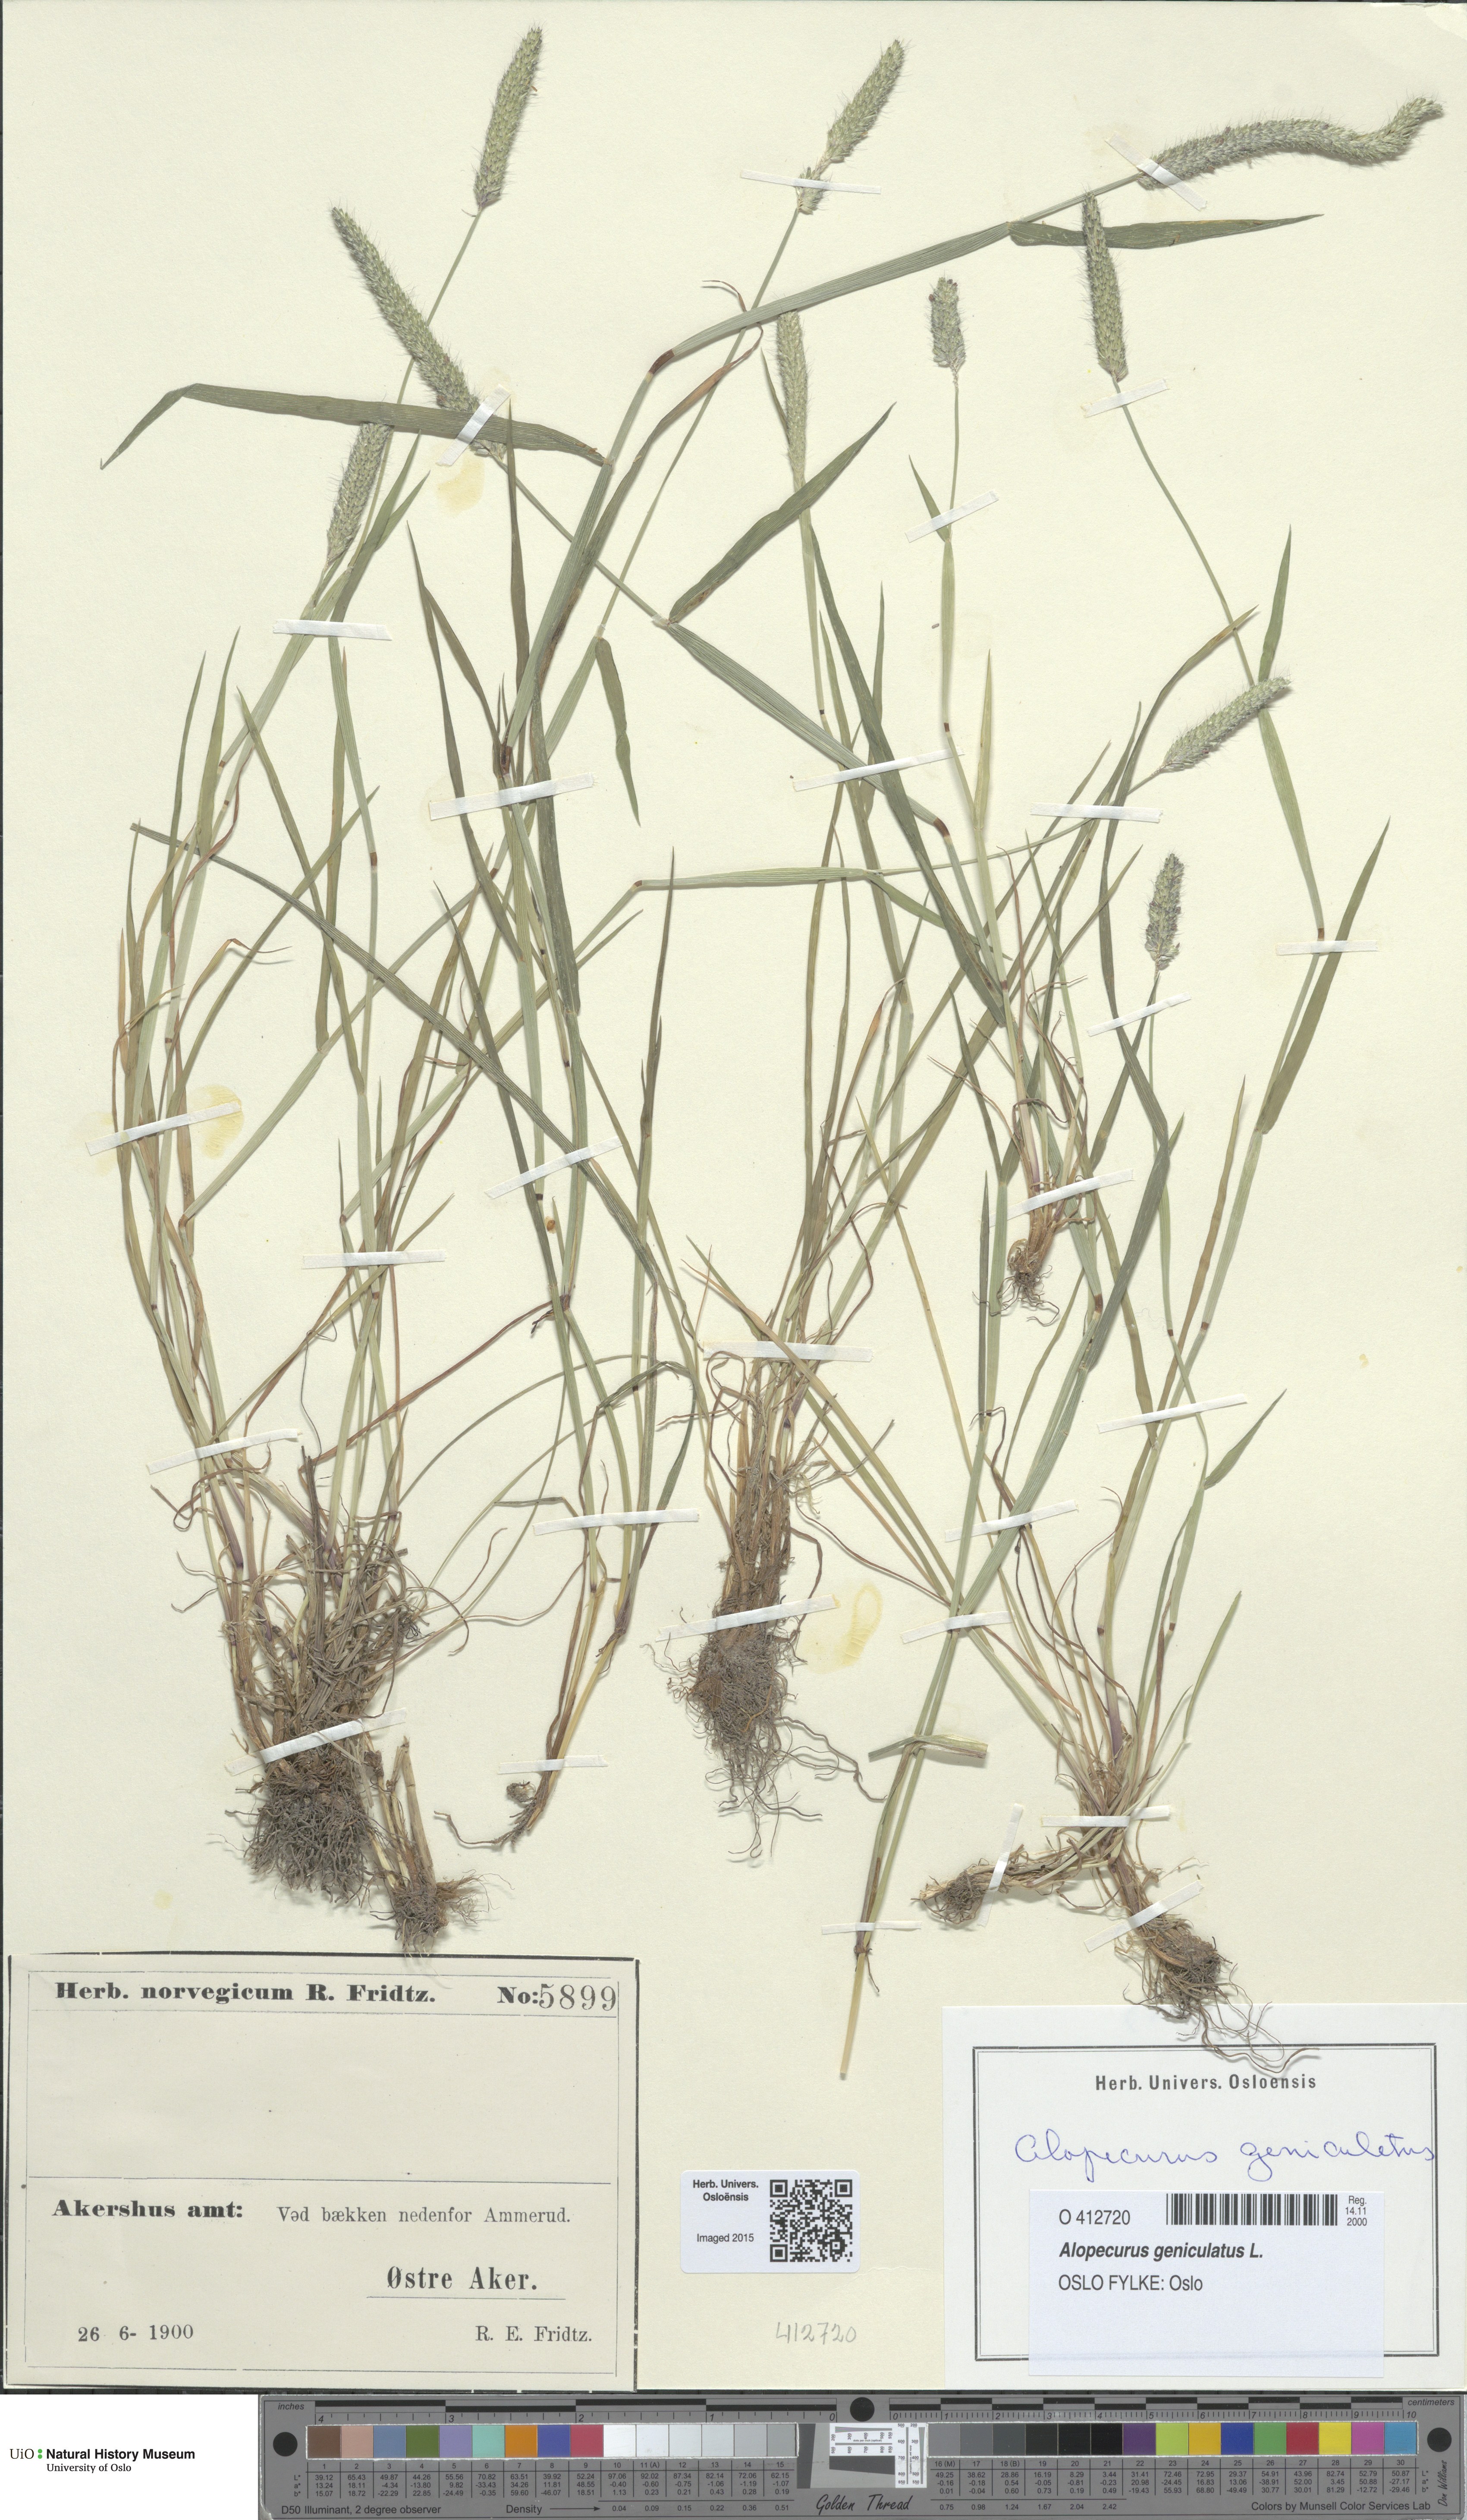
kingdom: Plantae
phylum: Tracheophyta
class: Liliopsida
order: Poales
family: Poaceae
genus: Alopecurus
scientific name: Alopecurus geniculatus
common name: Water foxtail
